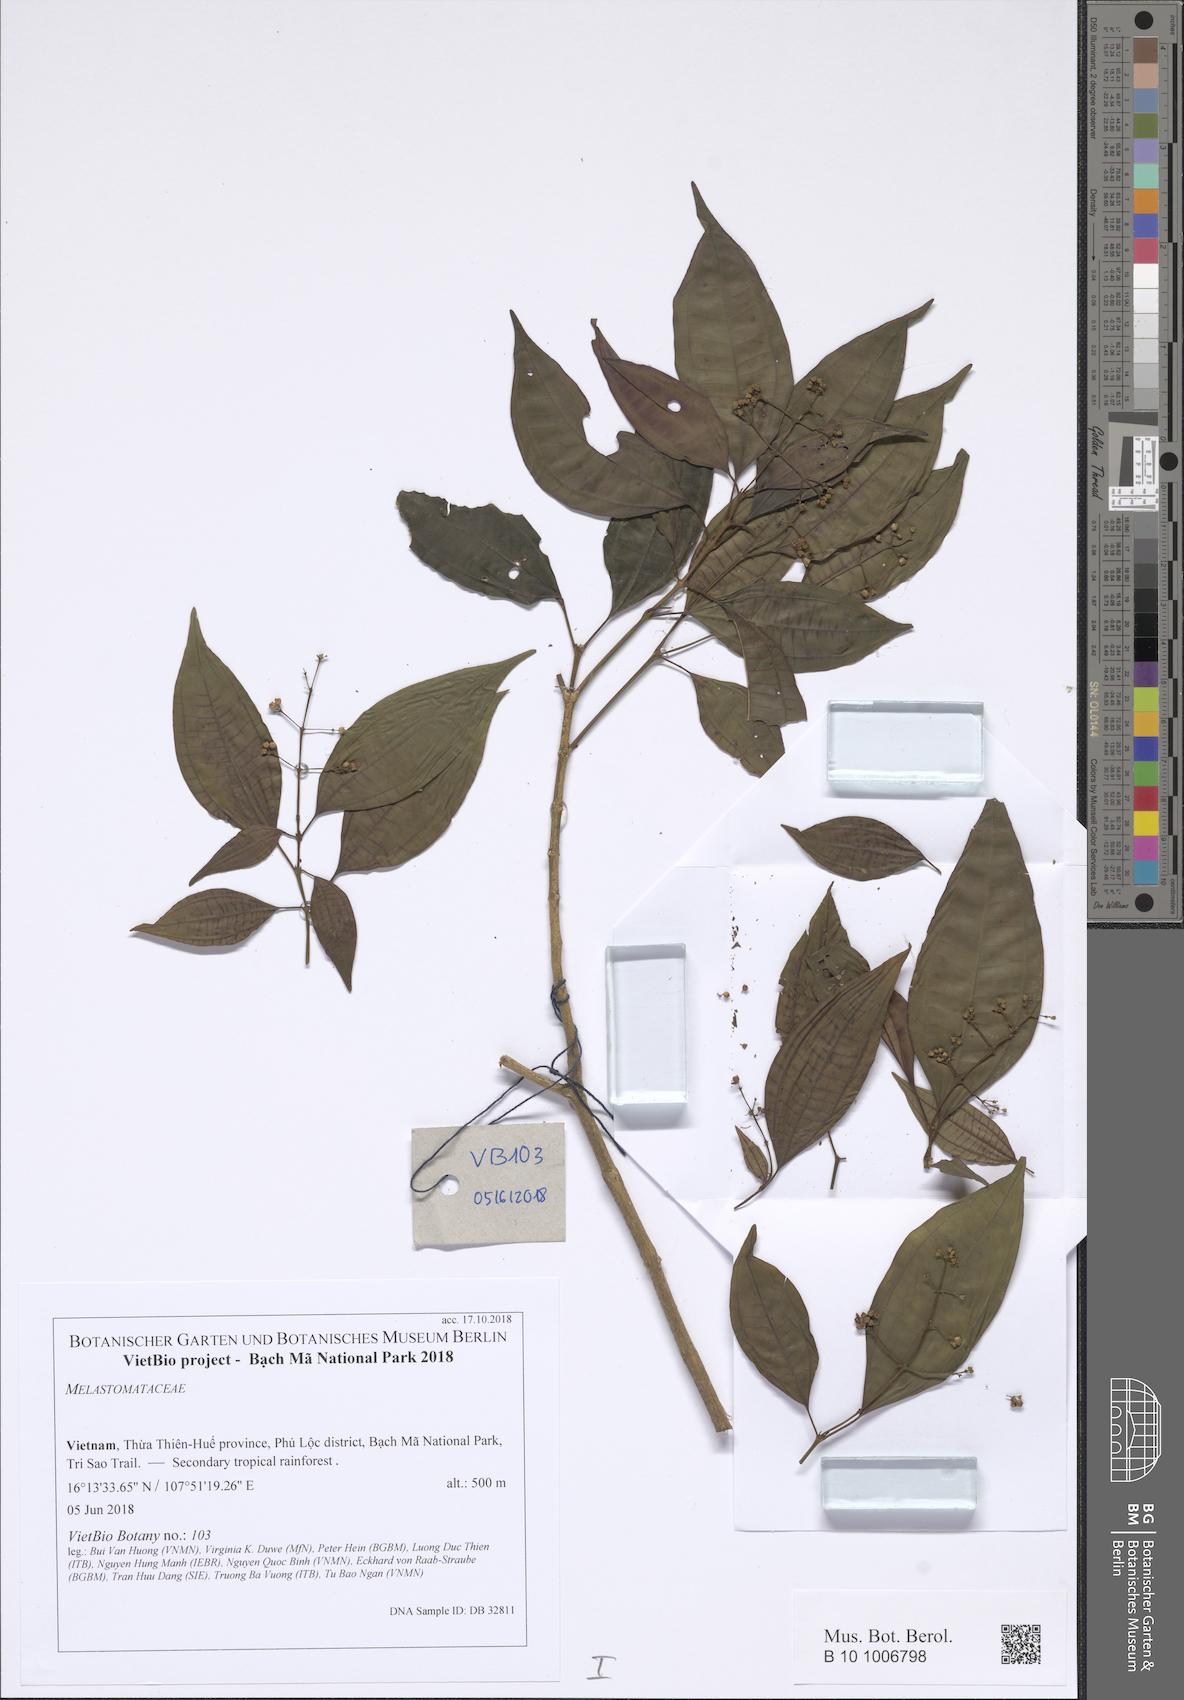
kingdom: Plantae
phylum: Tracheophyta
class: Magnoliopsida
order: Myrtales
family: Melastomataceae
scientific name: Melastomataceae
